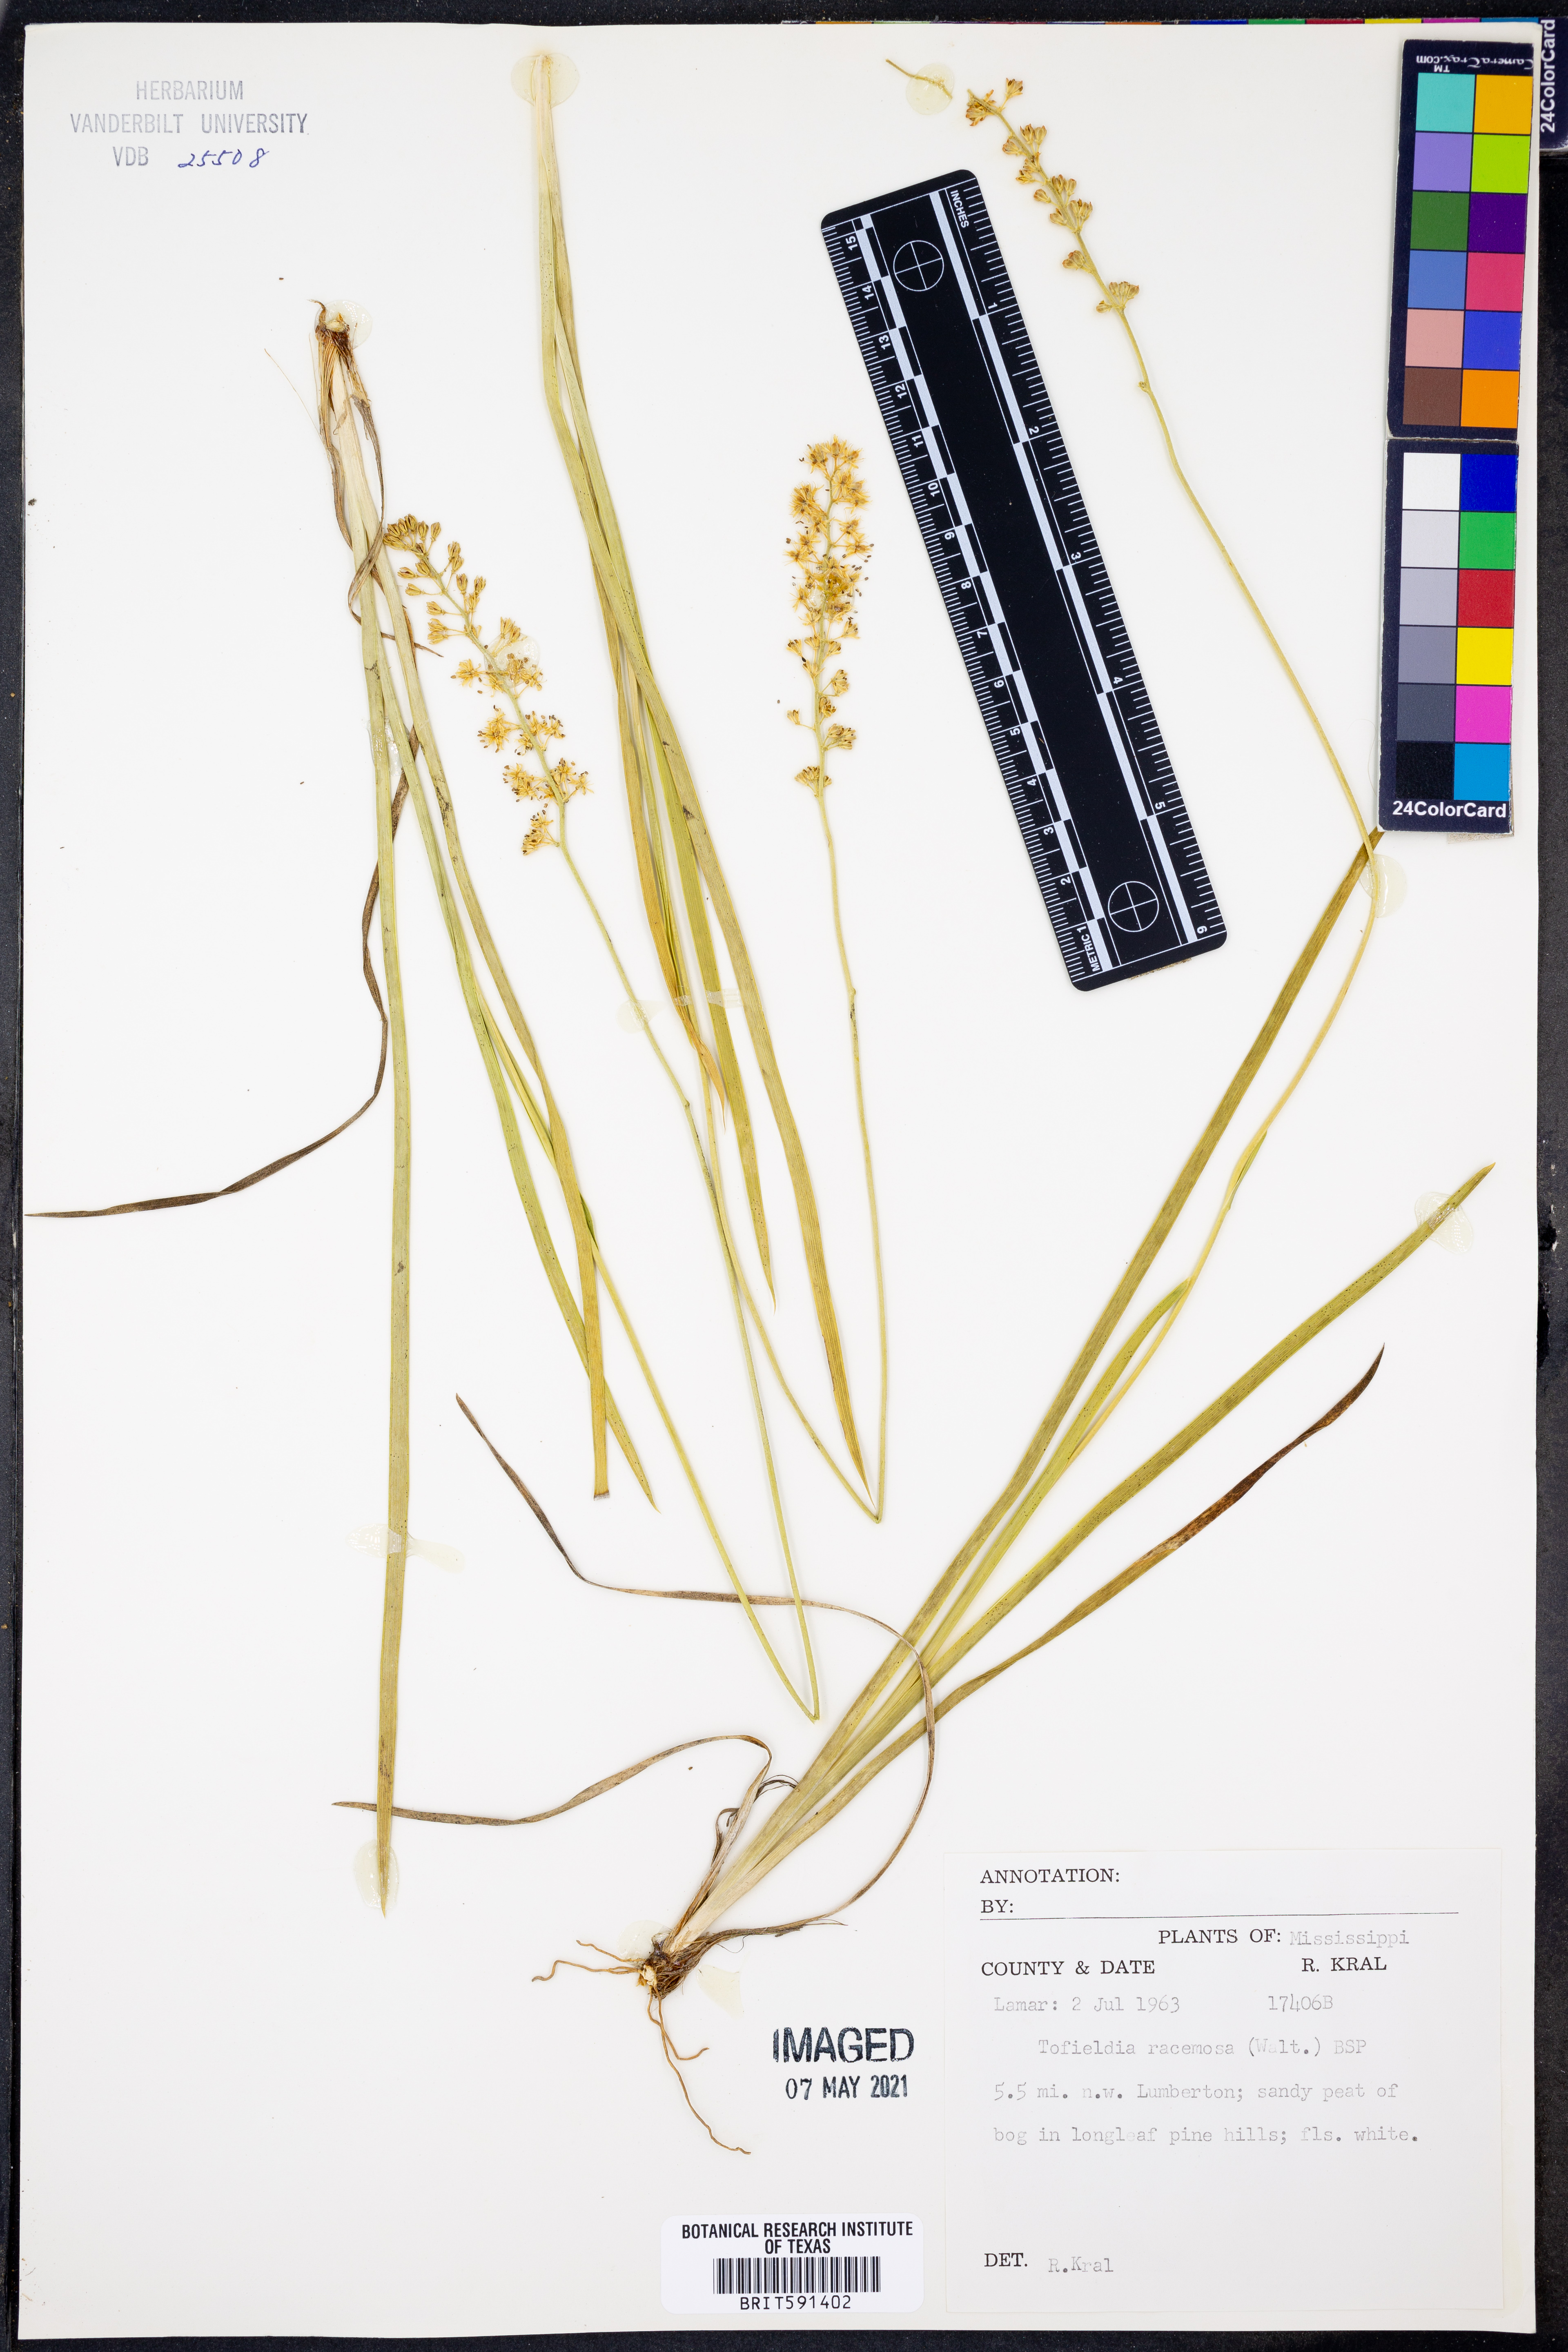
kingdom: Plantae
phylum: Tracheophyta
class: Liliopsida
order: Alismatales
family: Tofieldiaceae
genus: Triantha
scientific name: Triantha racemosa
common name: Coastal false asphodel
